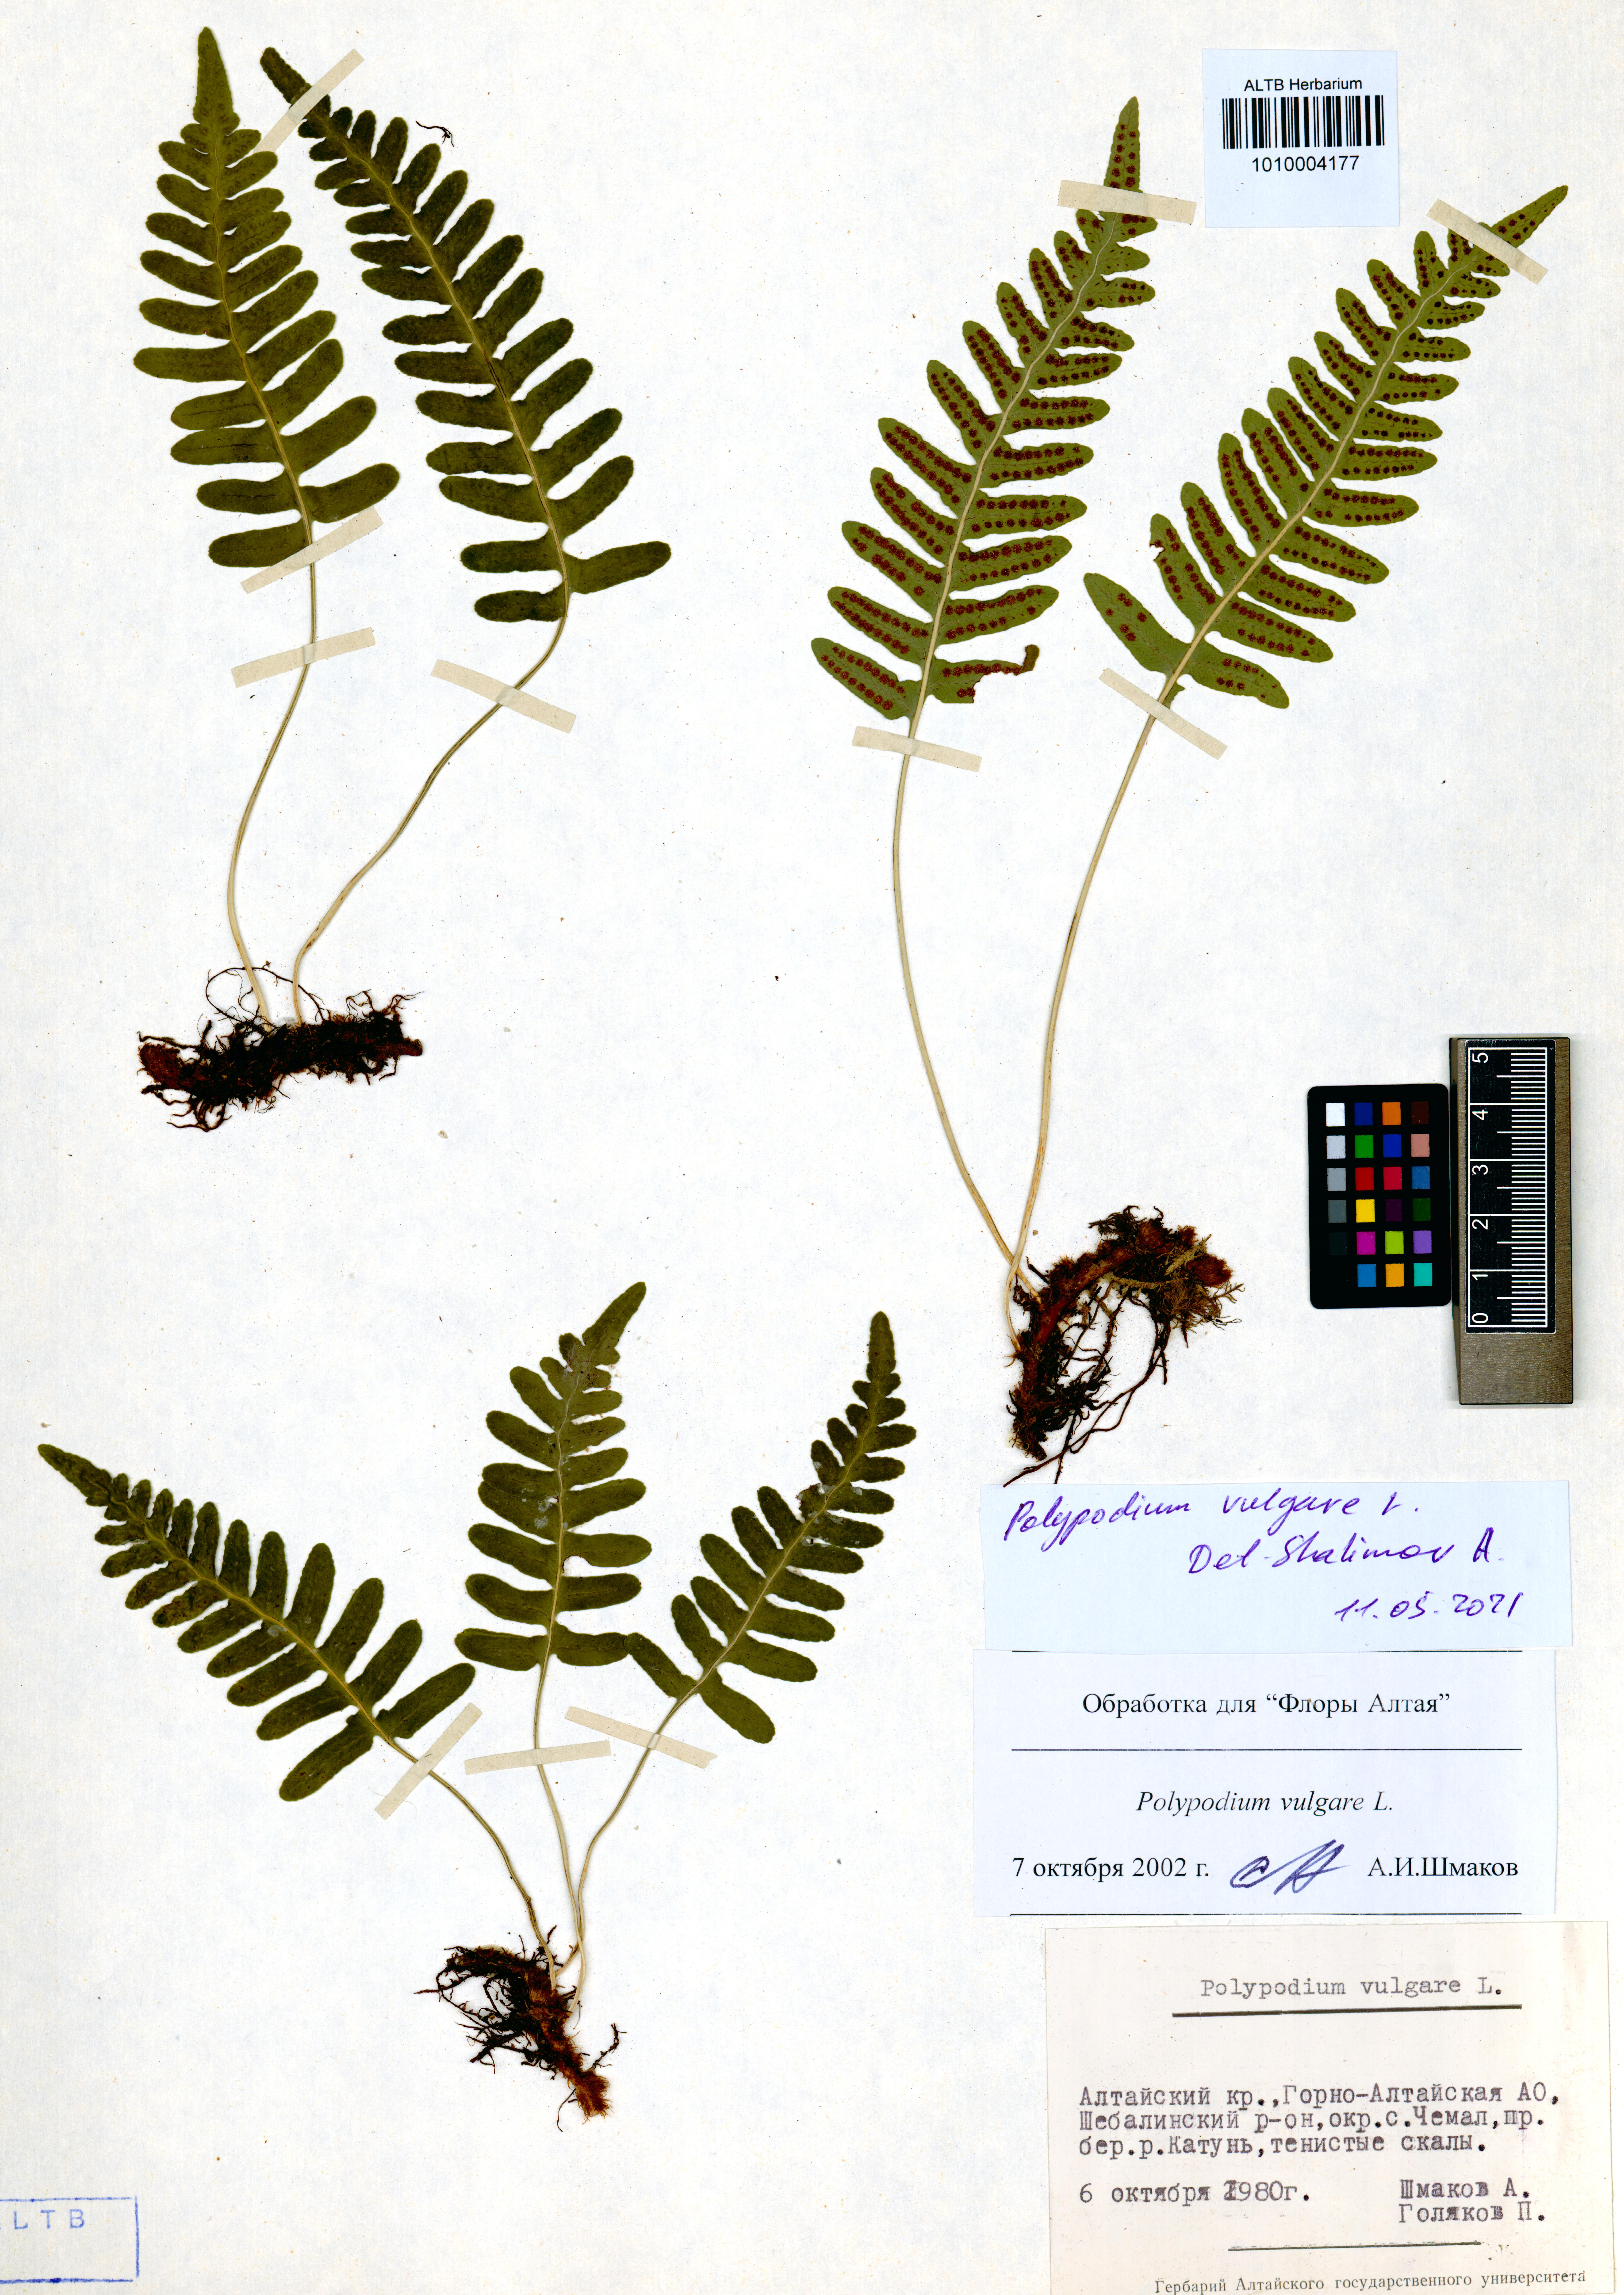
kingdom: Plantae
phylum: Tracheophyta
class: Polypodiopsida
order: Polypodiales
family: Polypodiaceae
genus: Polypodium
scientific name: Polypodium vulgare
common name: Common polypody
